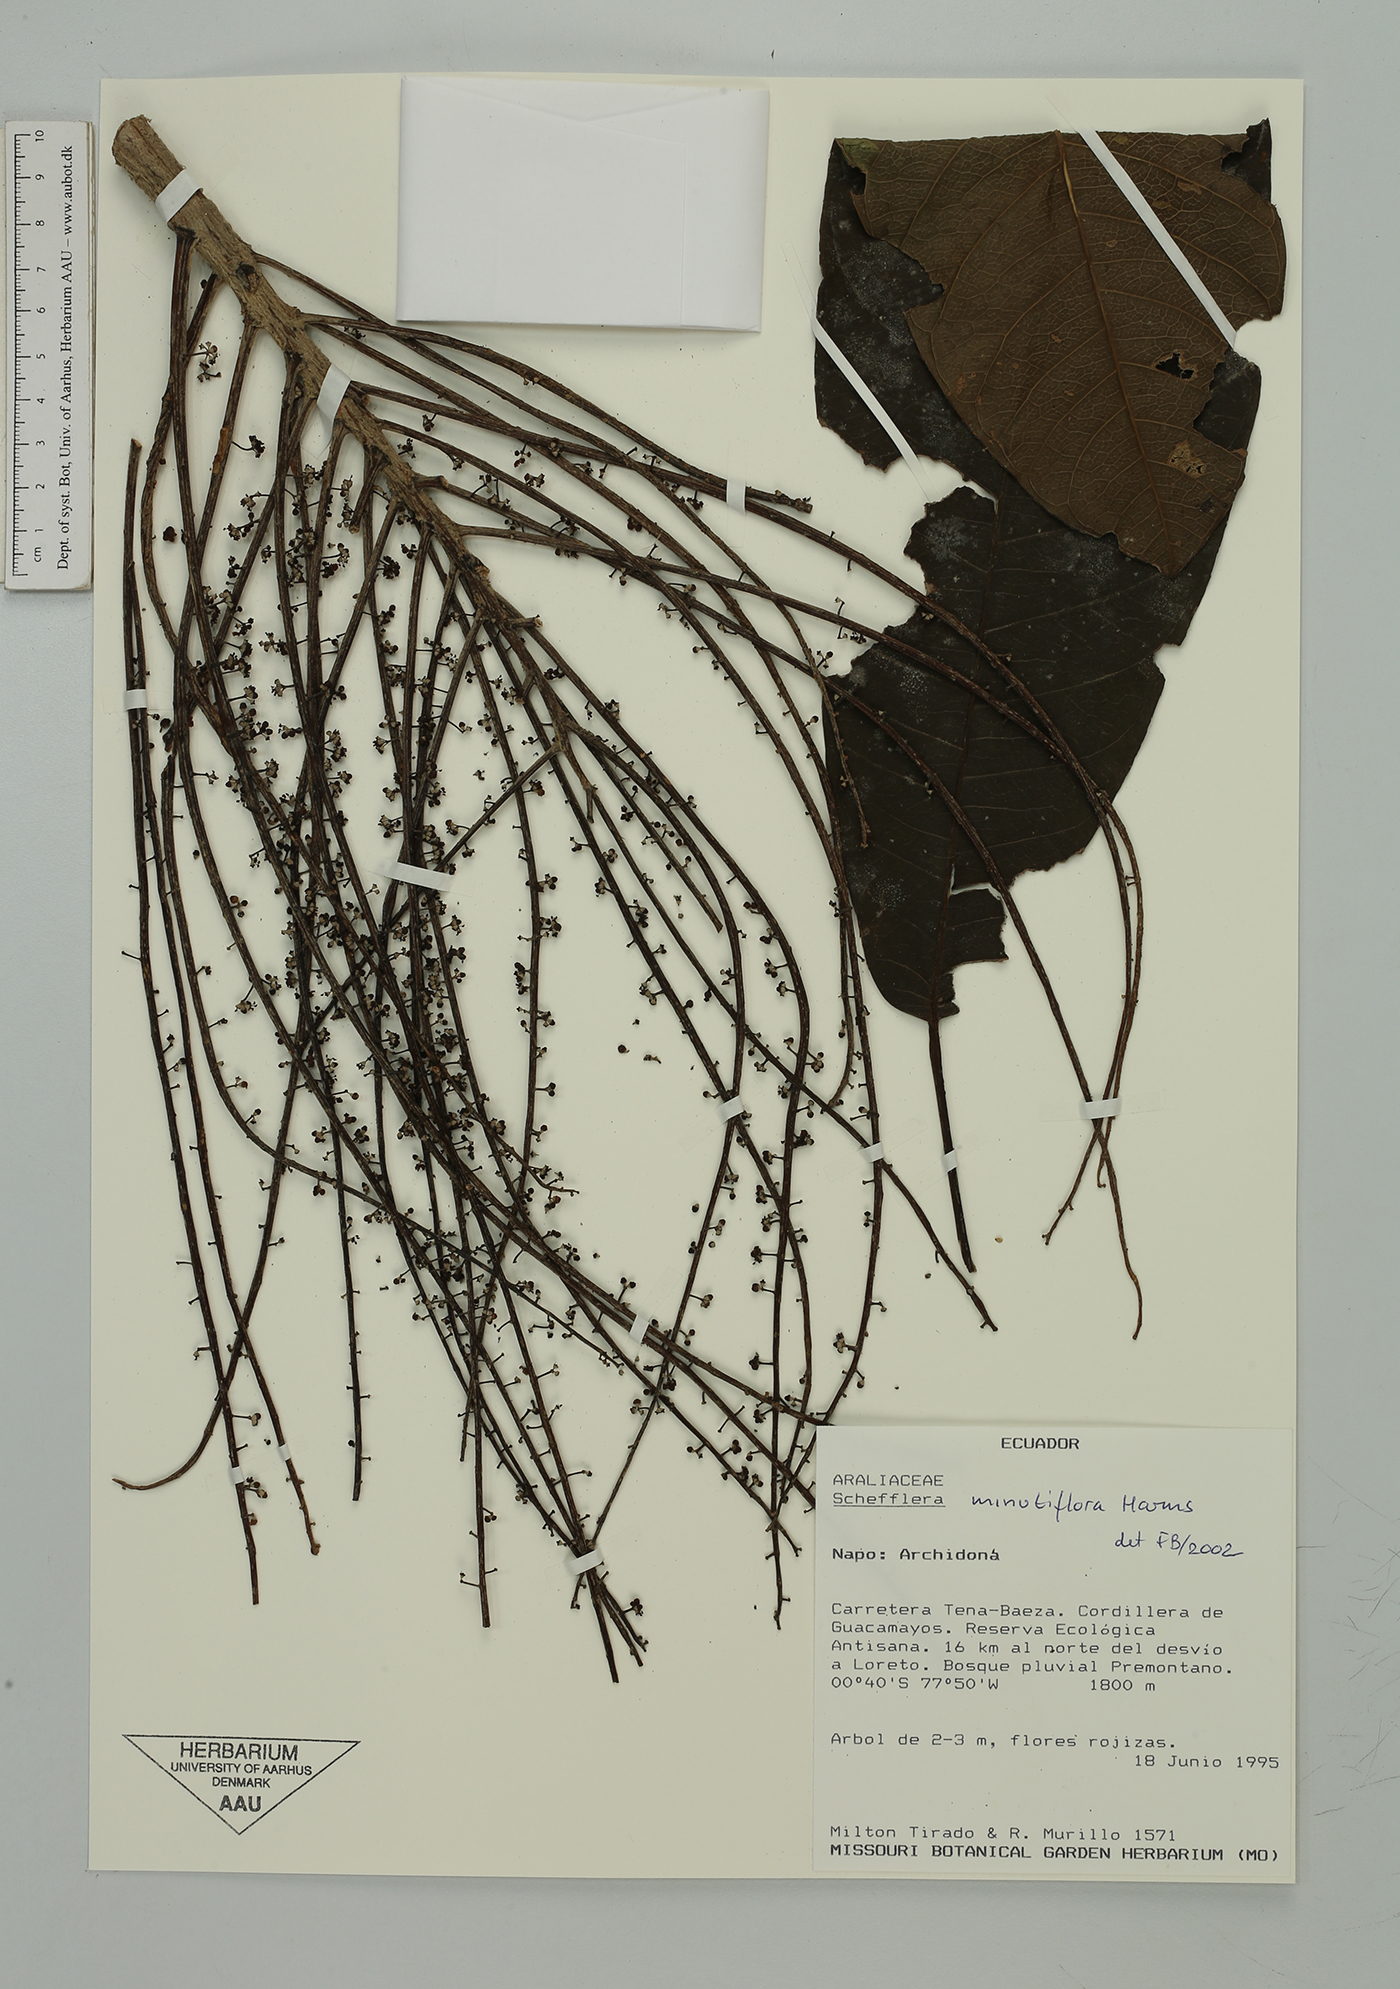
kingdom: Plantae
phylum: Tracheophyta
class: Magnoliopsida
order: Apiales
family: Araliaceae
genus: Sciodaphyllum
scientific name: Sciodaphyllum minutiflorum
